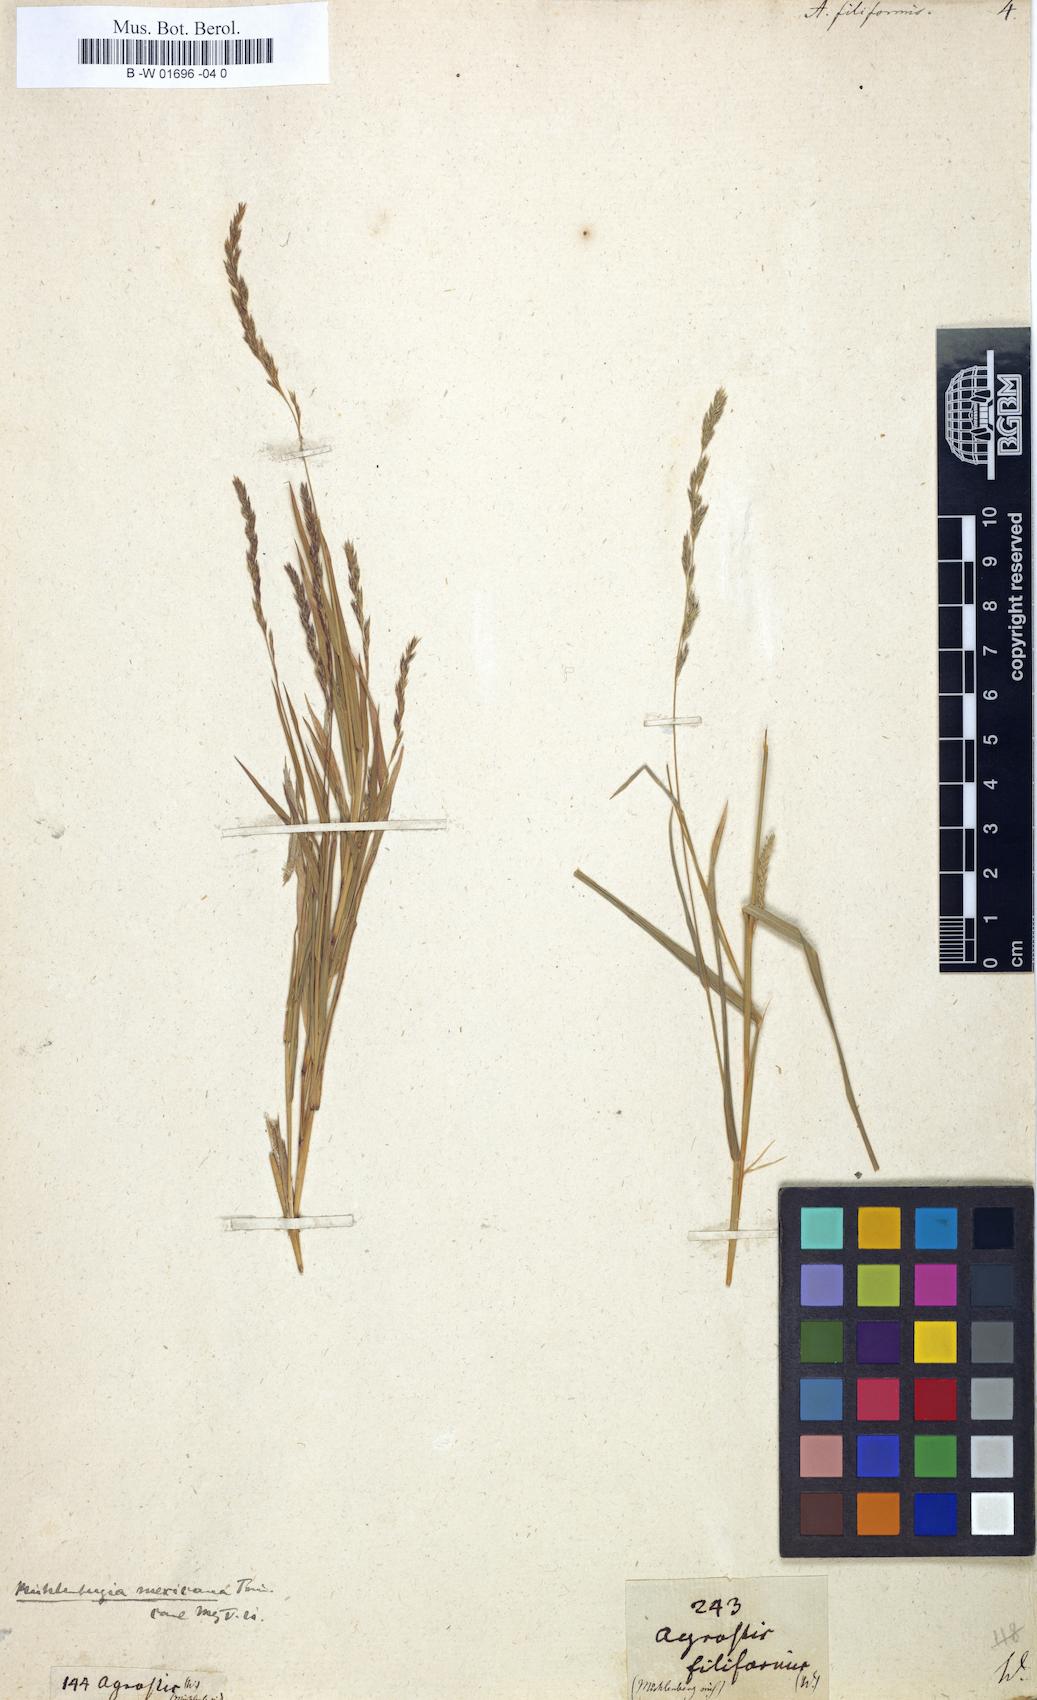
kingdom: Plantae
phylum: Tracheophyta
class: Liliopsida
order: Poales
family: Poaceae
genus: Apera
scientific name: Apera spica-venti
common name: Loose silky-bent
